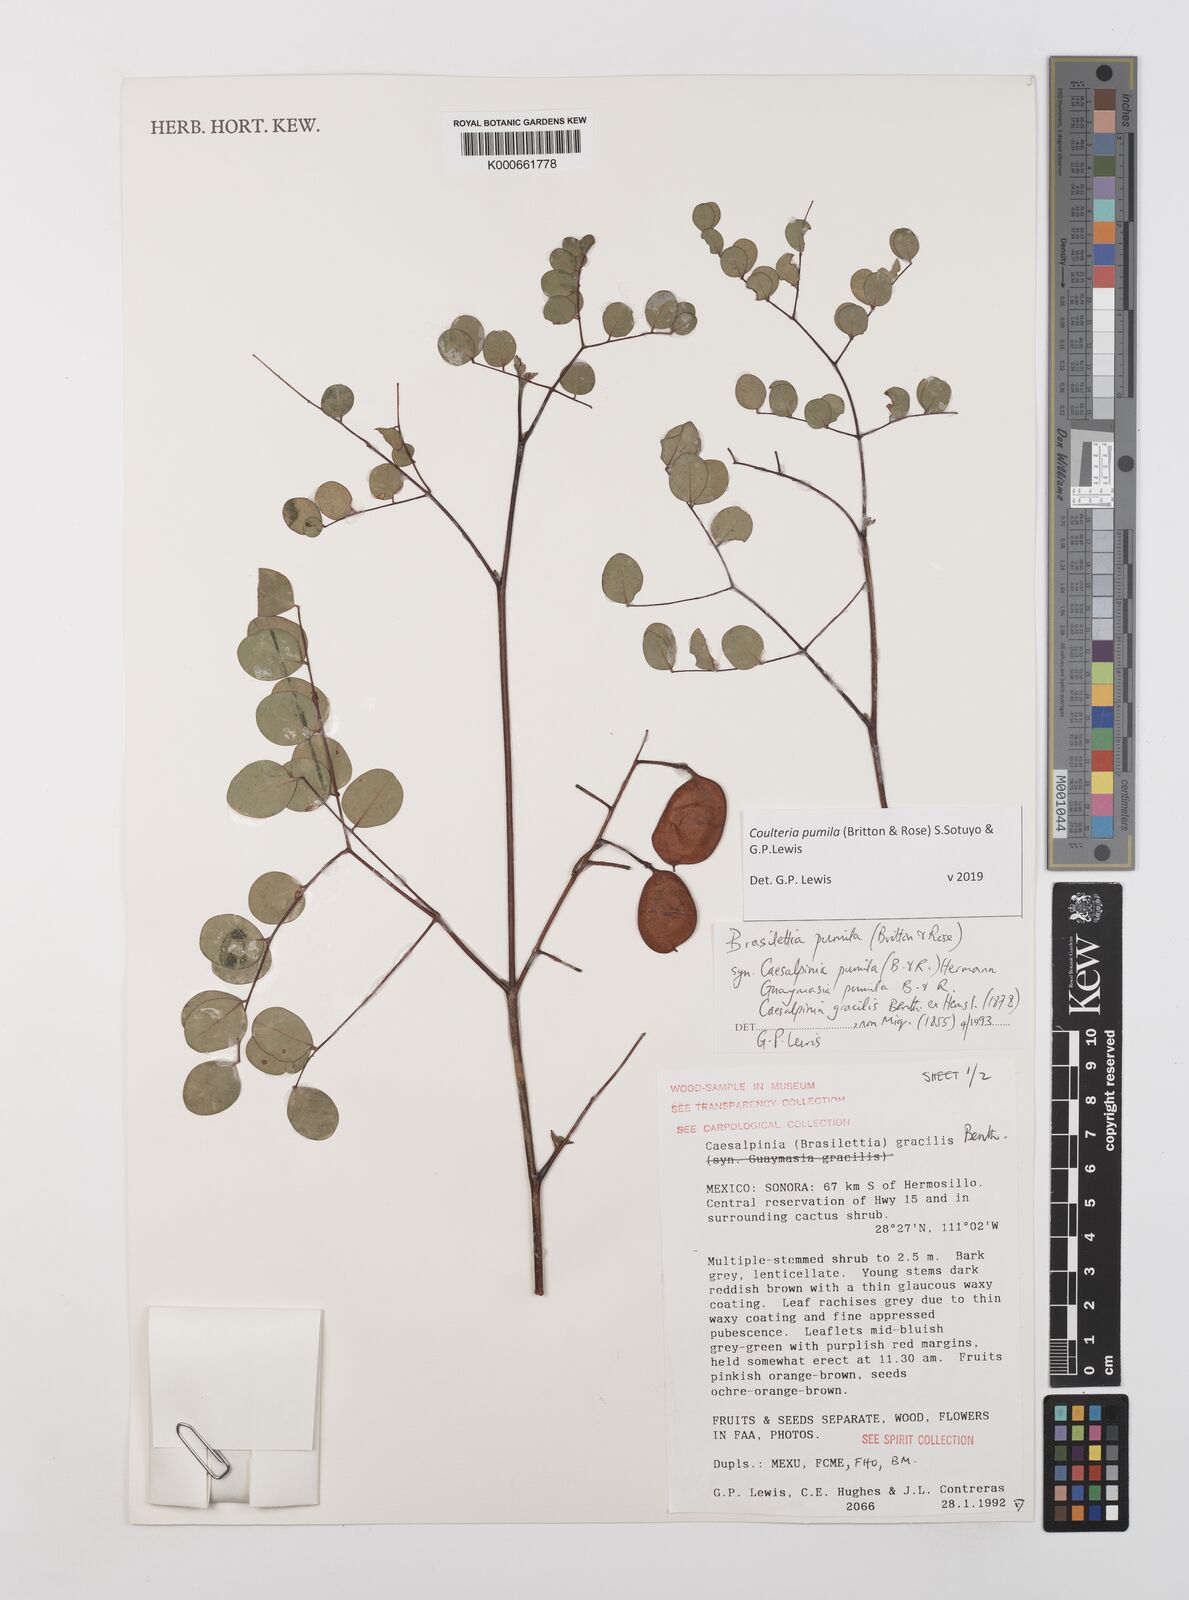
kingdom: Plantae
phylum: Tracheophyta
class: Magnoliopsida
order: Fabales
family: Fabaceae
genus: Coulteria
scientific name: Coulteria
